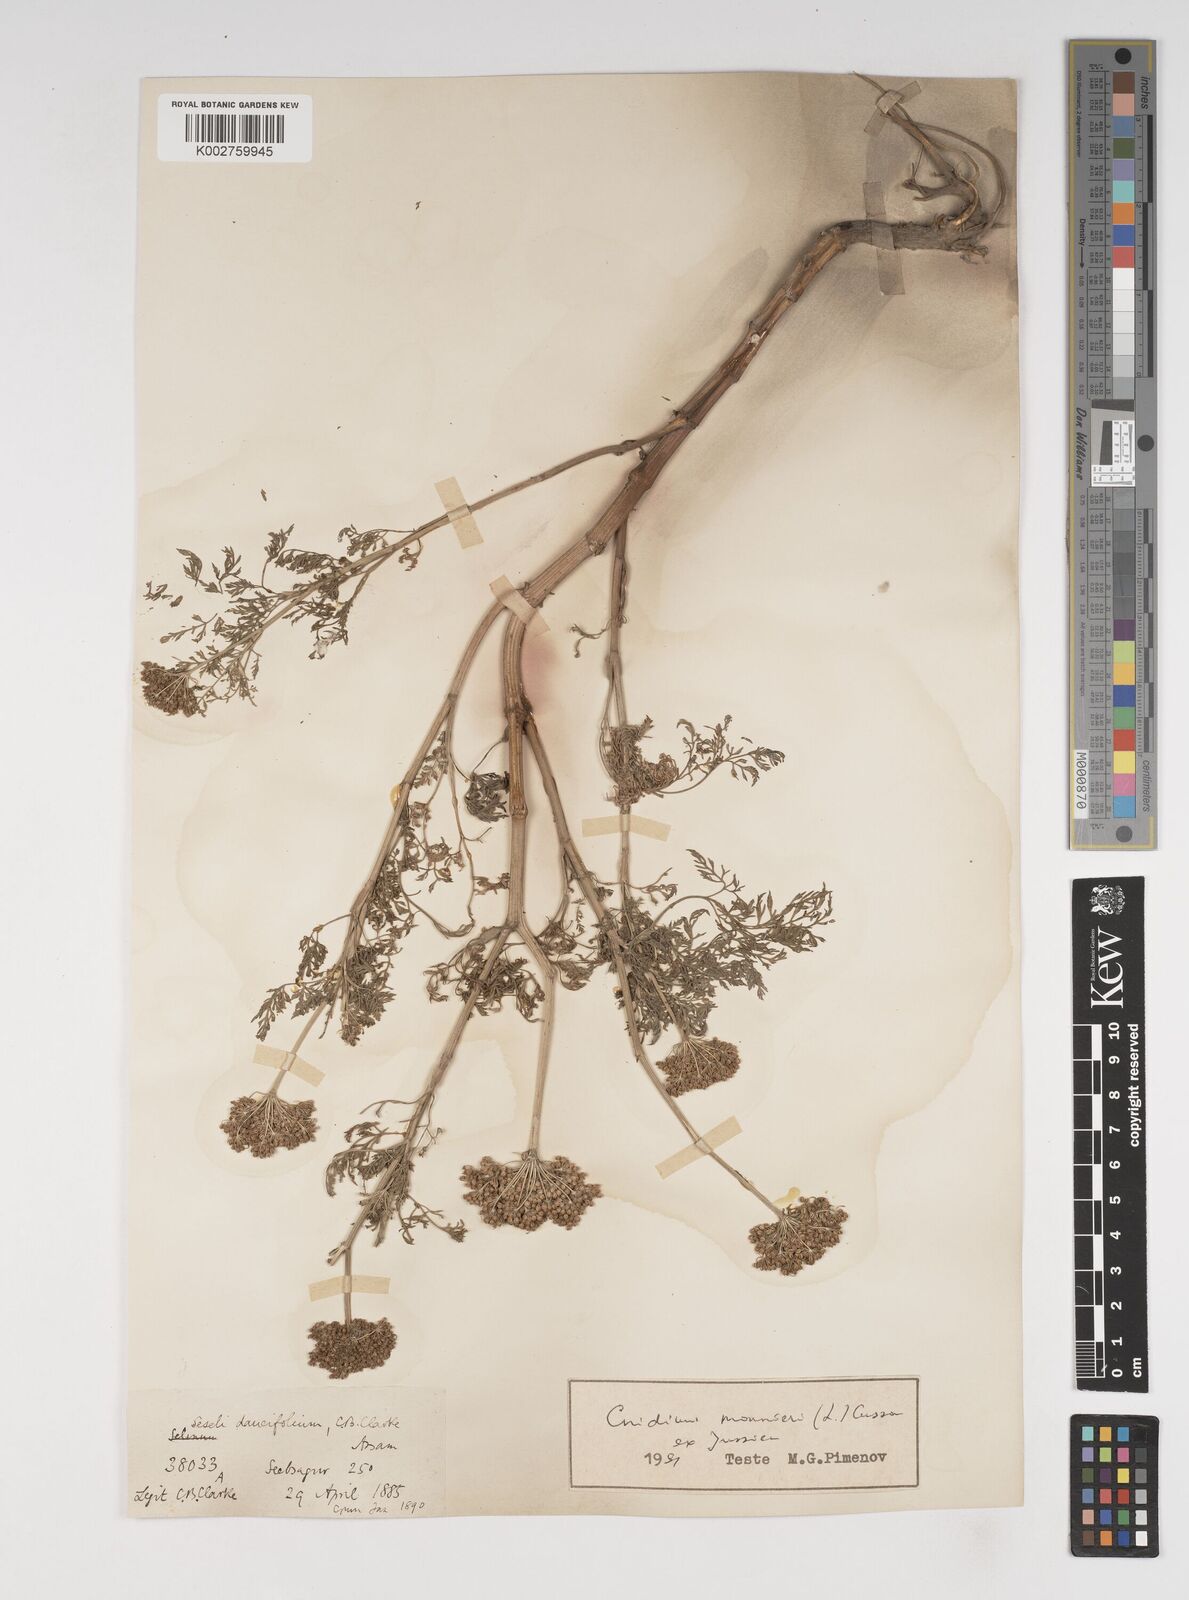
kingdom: Plantae
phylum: Tracheophyta
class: Magnoliopsida
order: Apiales
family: Apiaceae
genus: Cnidium
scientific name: Cnidium monnieri
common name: Monnier's snowparsley
